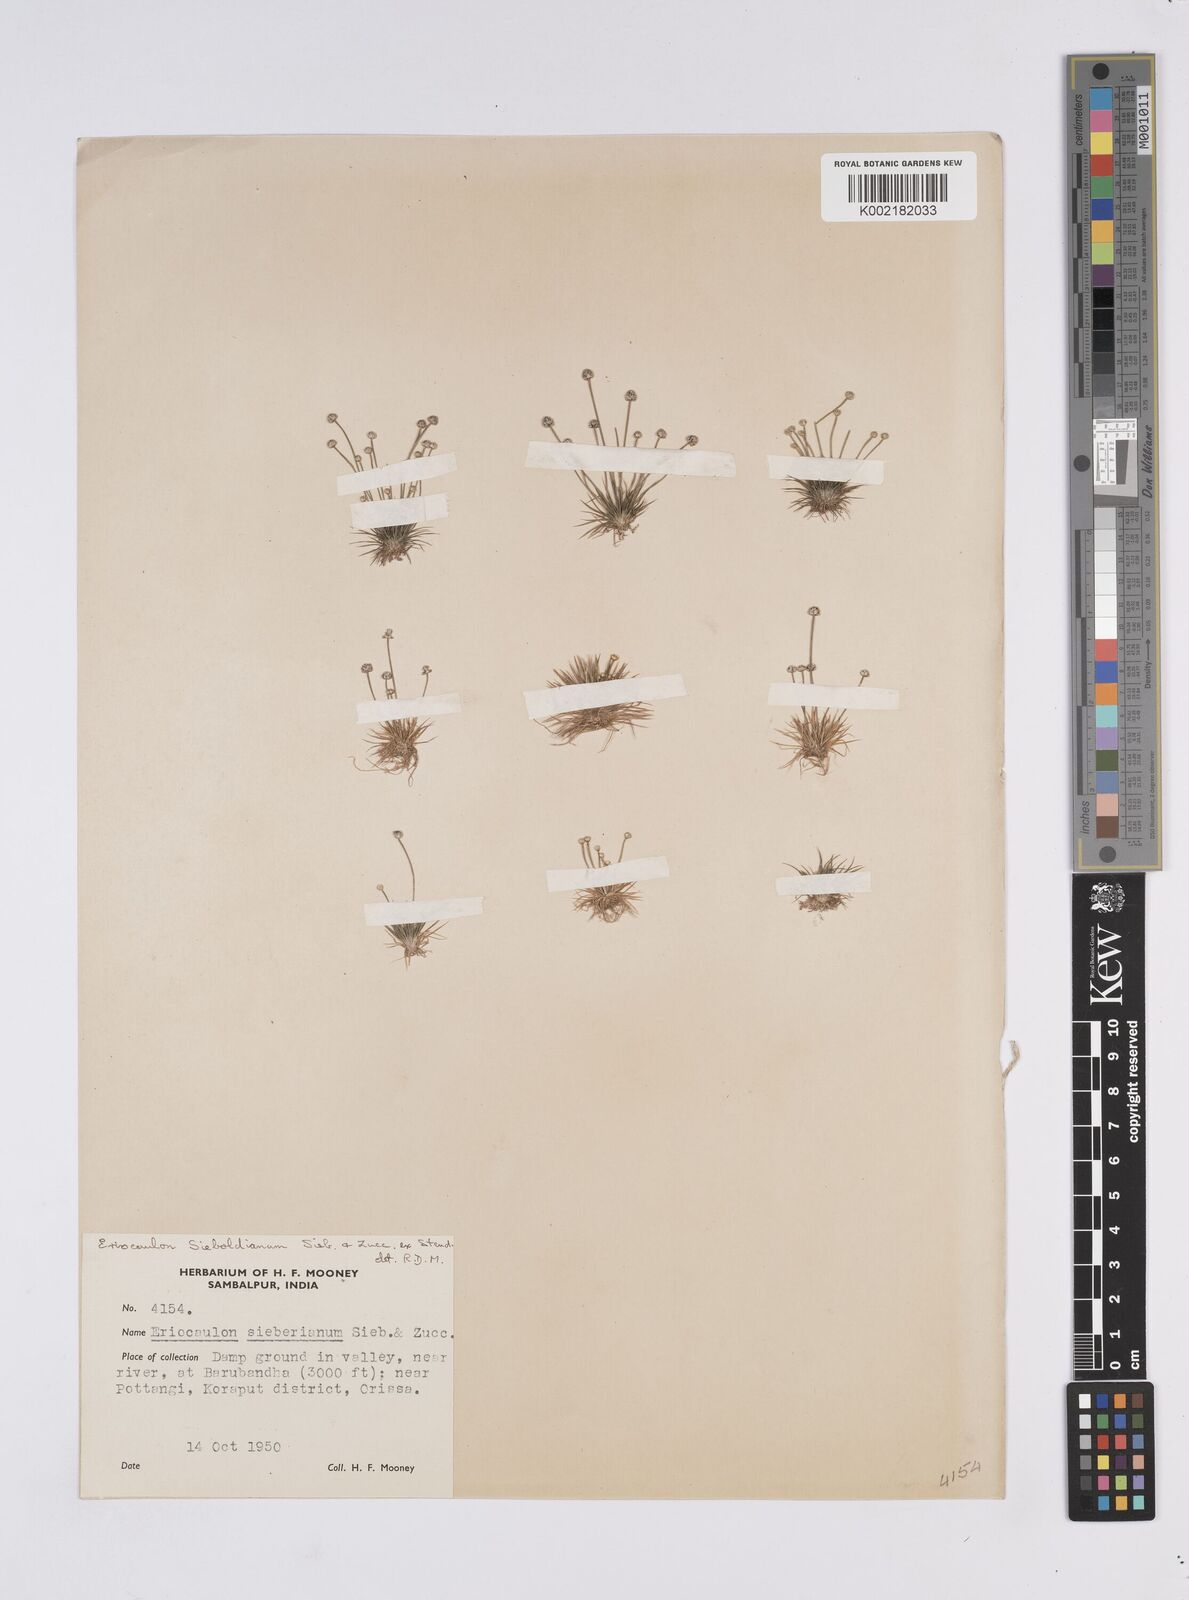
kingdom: Plantae
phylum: Tracheophyta
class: Liliopsida
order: Poales
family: Eriocaulaceae
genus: Eriocaulon
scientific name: Eriocaulon cinereum
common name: Ashy pipewort
